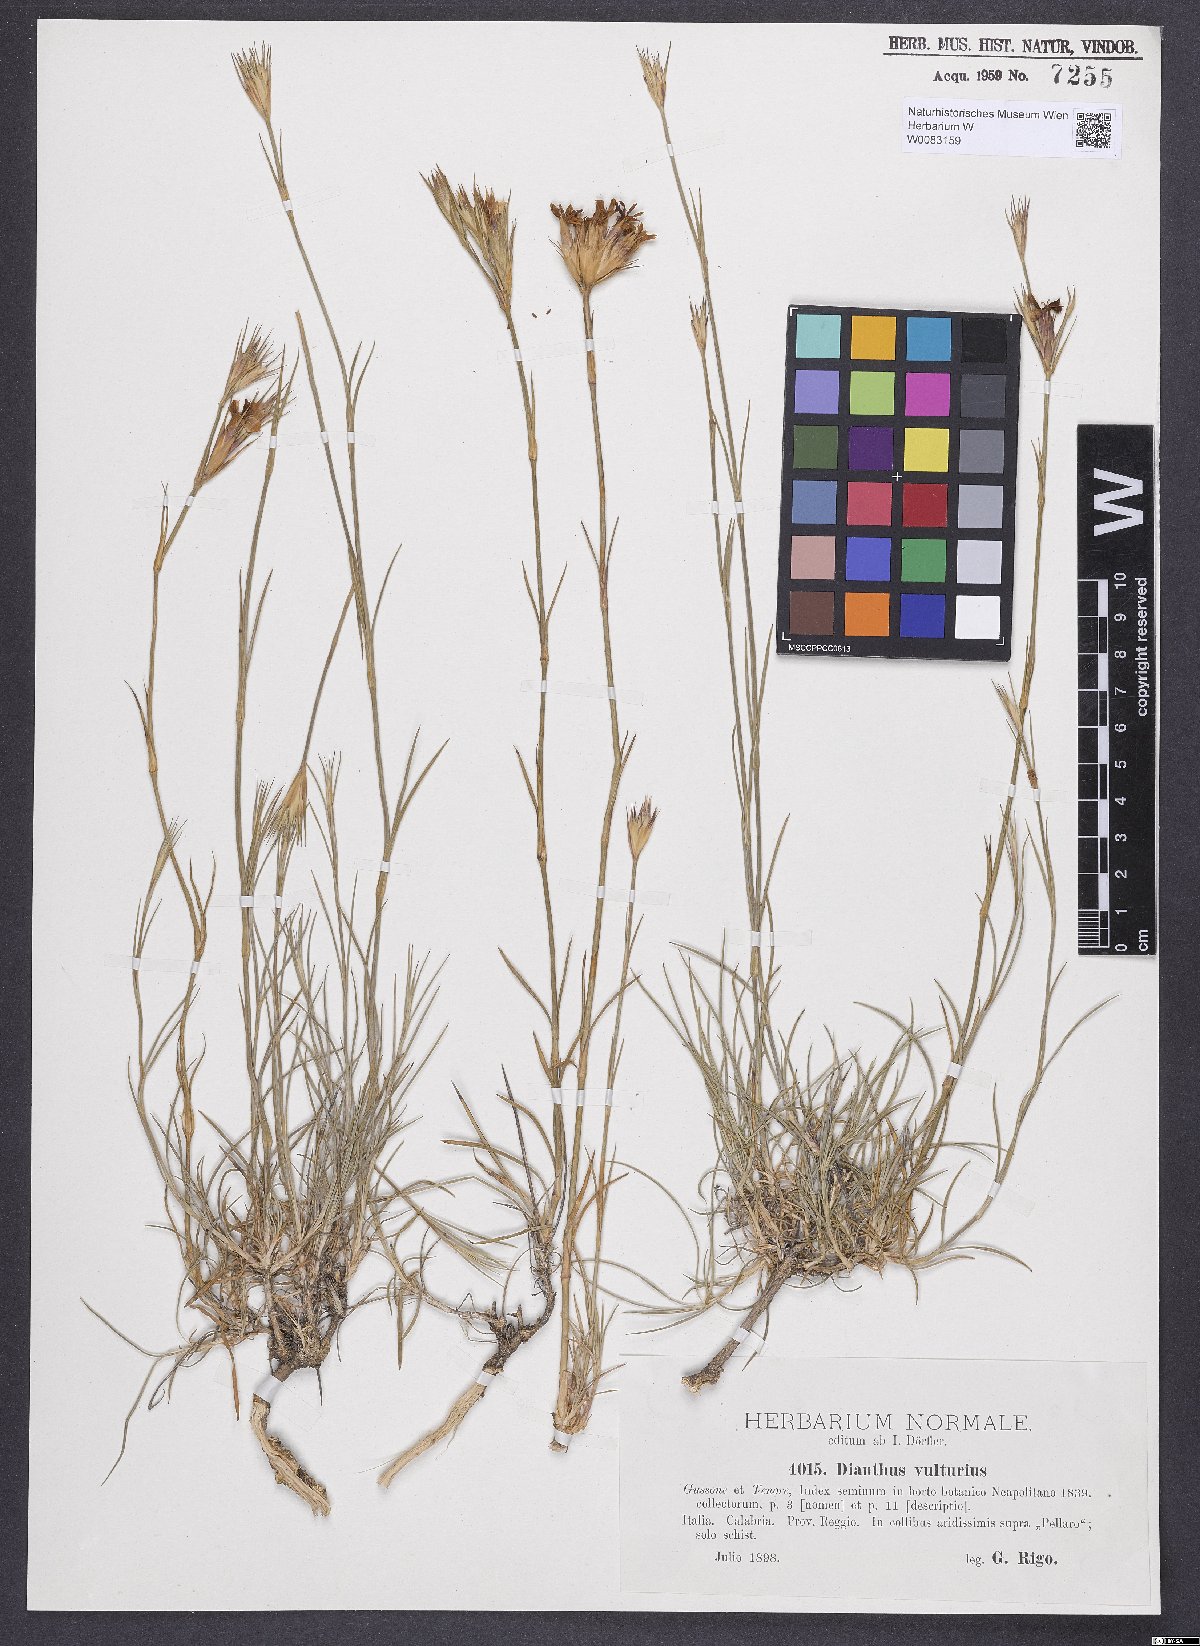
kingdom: Plantae
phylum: Tracheophyta
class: Magnoliopsida
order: Caryophyllales
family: Caryophyllaceae
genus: Dianthus
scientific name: Dianthus vulturius
